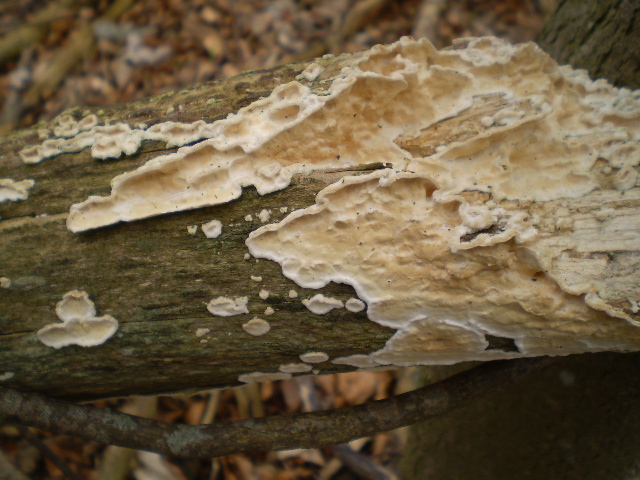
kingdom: Fungi
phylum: Basidiomycota
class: Agaricomycetes
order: Polyporales
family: Irpicaceae
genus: Byssomerulius
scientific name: Byssomerulius corium
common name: læder-åresvamp
